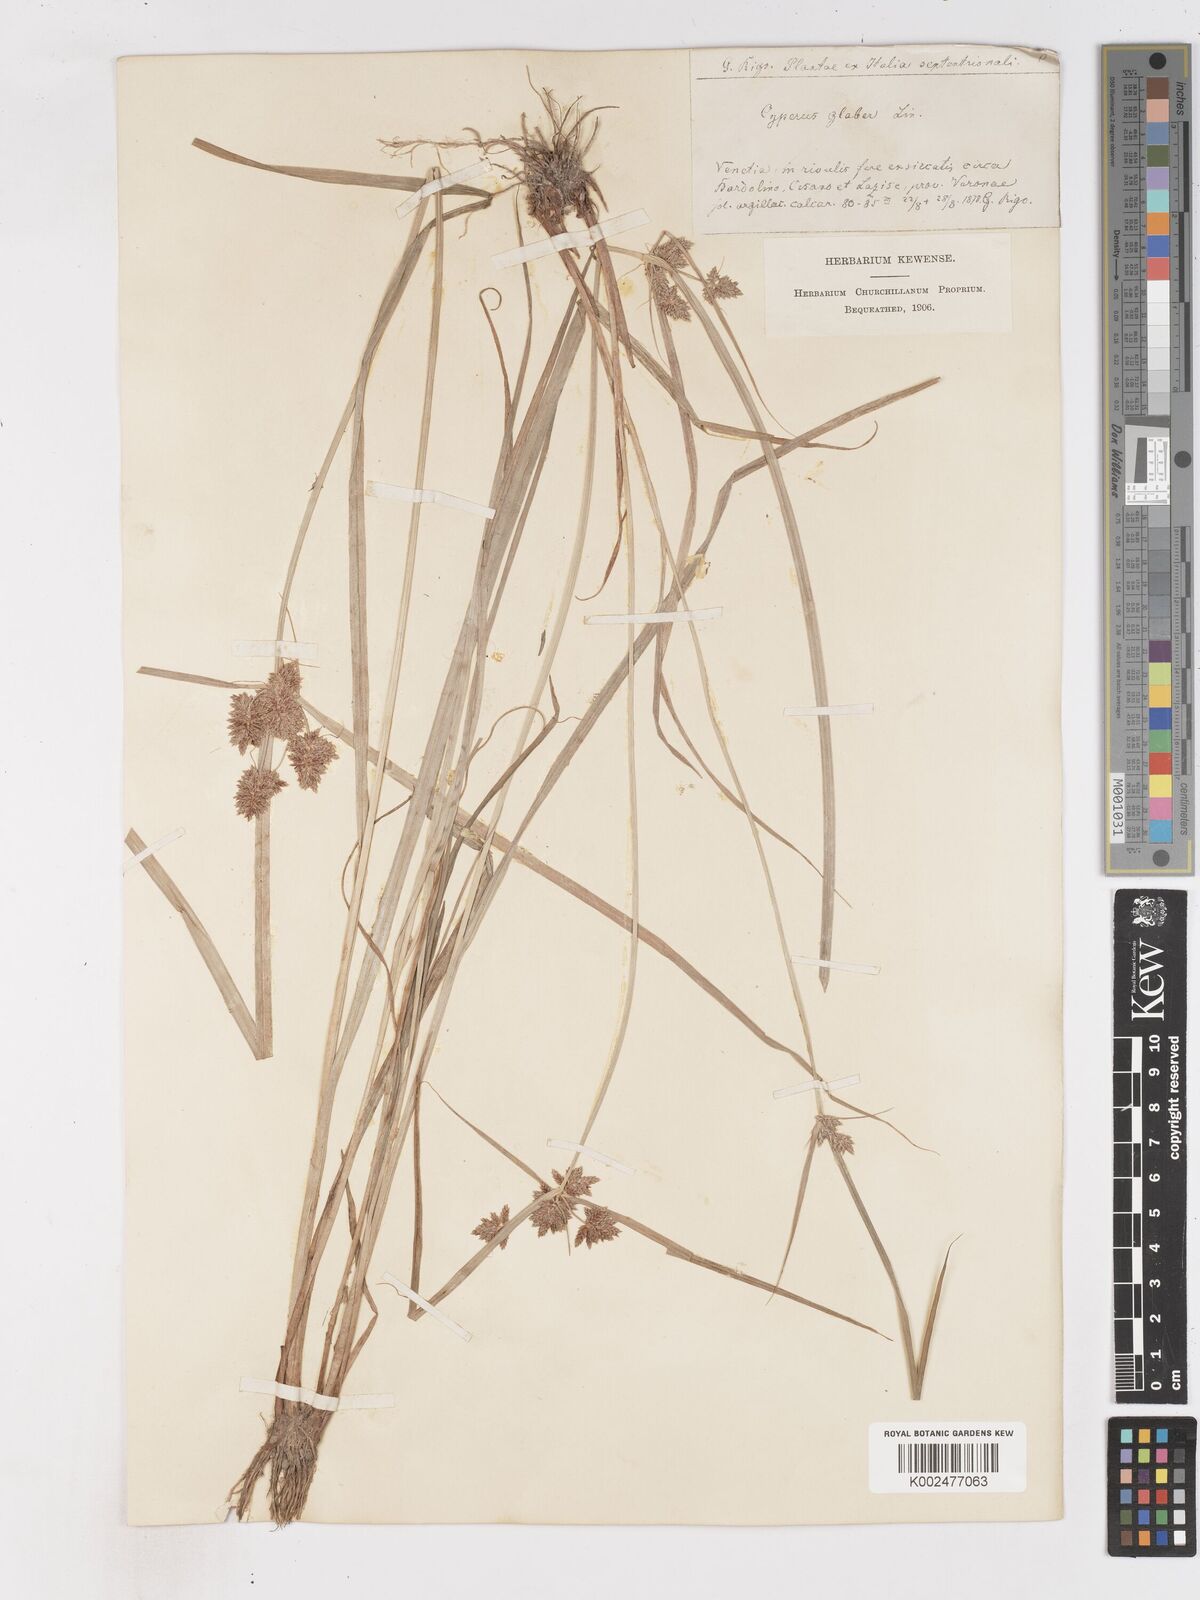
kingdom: Plantae
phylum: Tracheophyta
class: Liliopsida
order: Poales
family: Cyperaceae
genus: Cyperus
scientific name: Cyperus glaber
